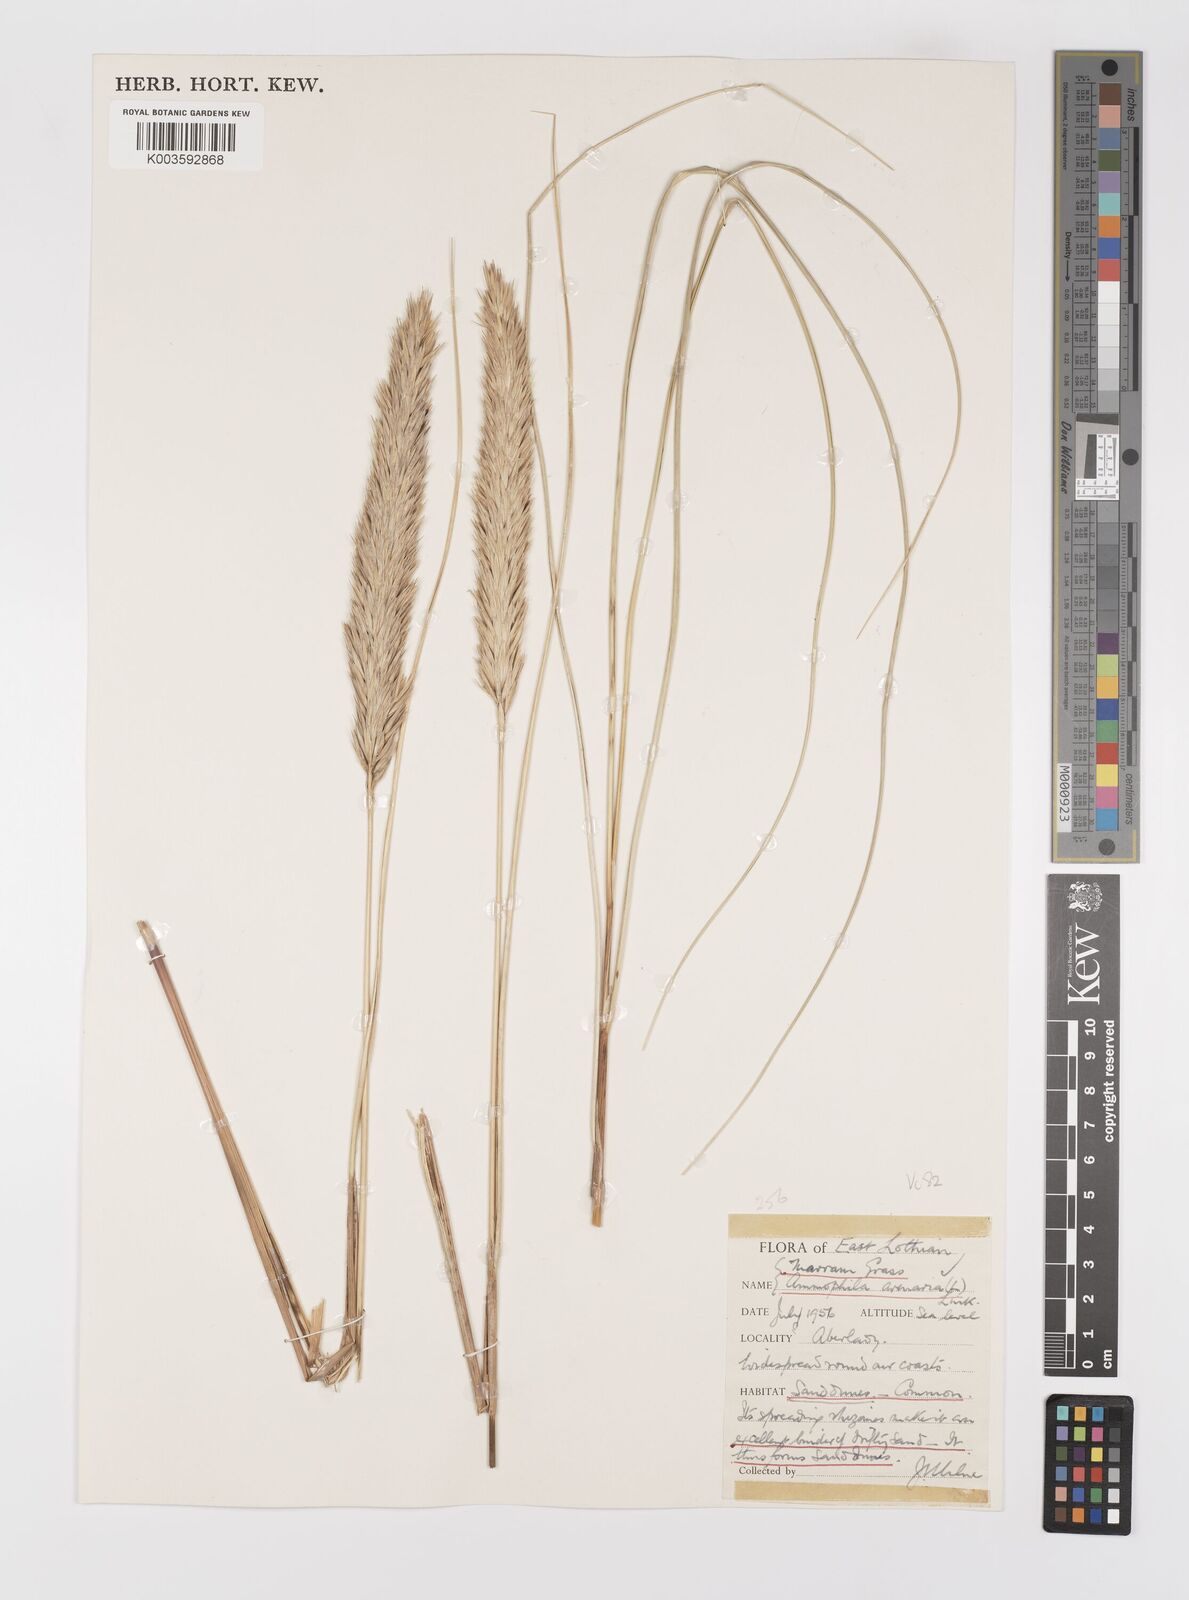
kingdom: Plantae
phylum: Tracheophyta
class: Liliopsida
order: Poales
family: Poaceae
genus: Calamagrostis
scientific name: Calamagrostis arenaria
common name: European beachgrass
